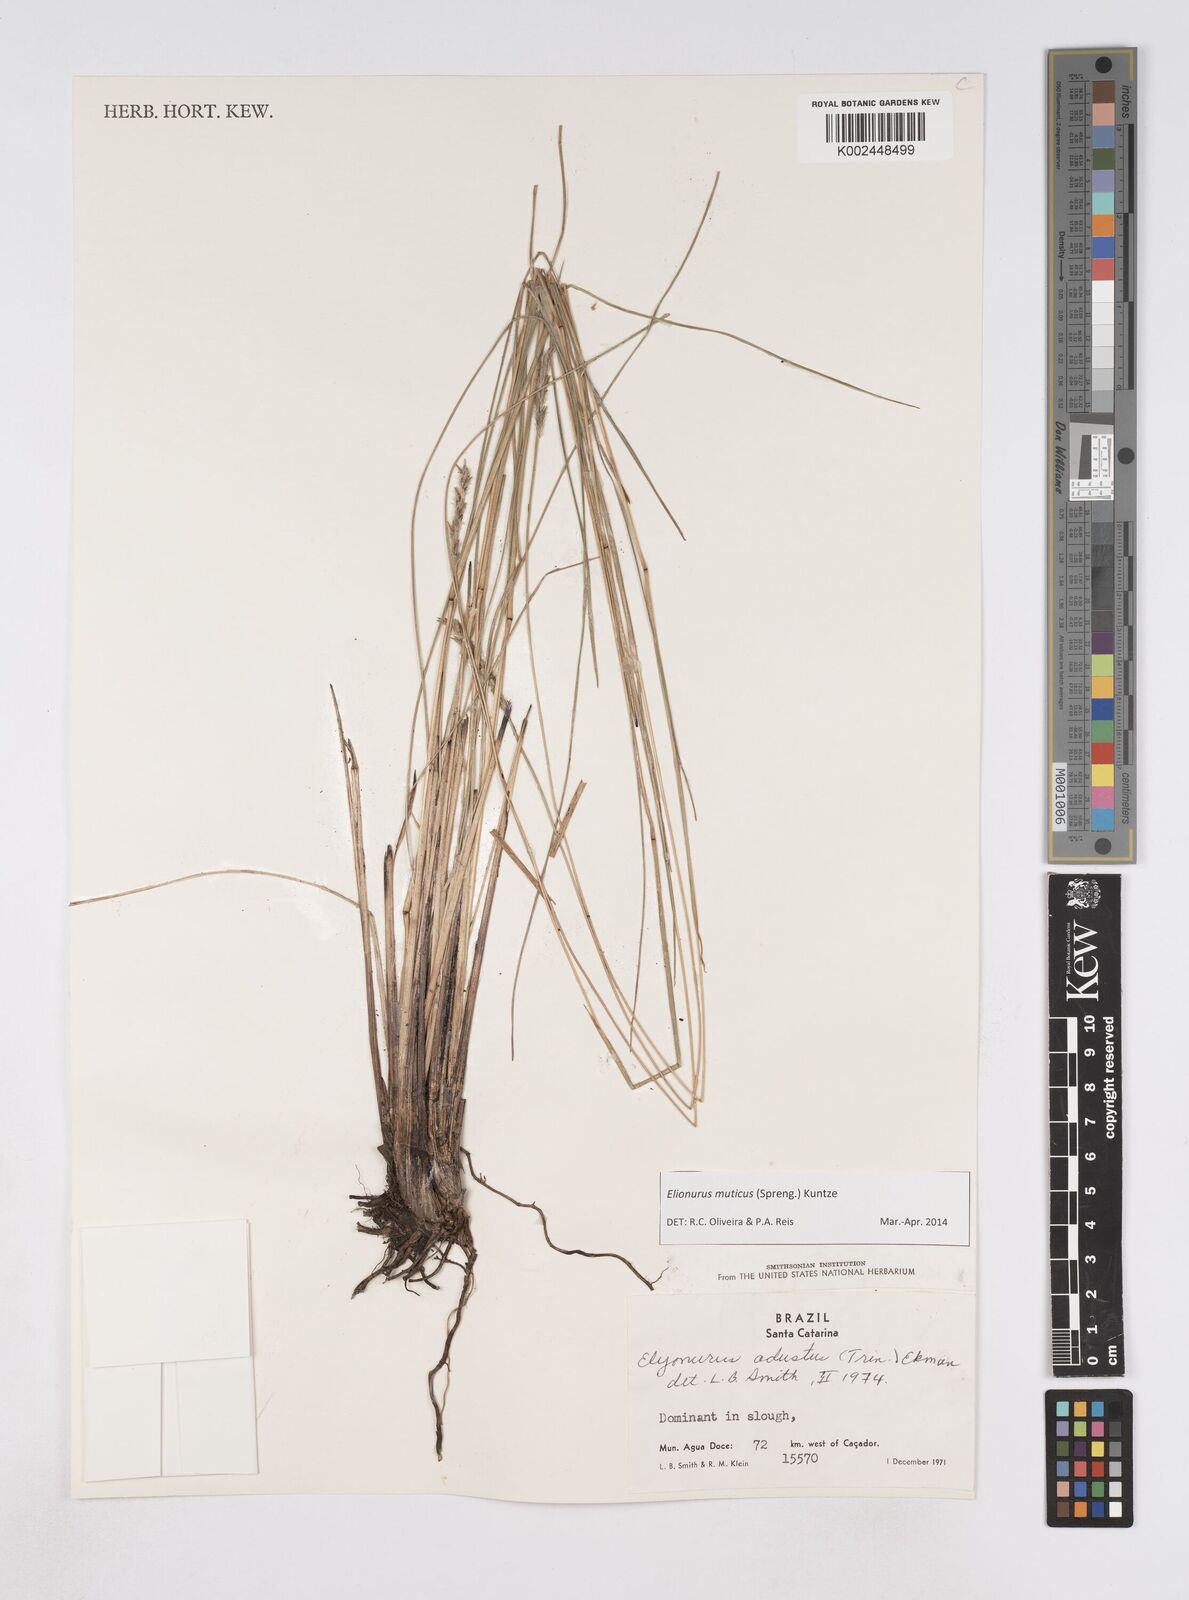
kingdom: Plantae
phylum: Tracheophyta
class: Liliopsida
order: Poales
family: Poaceae
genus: Elionurus
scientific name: Elionurus muticus
